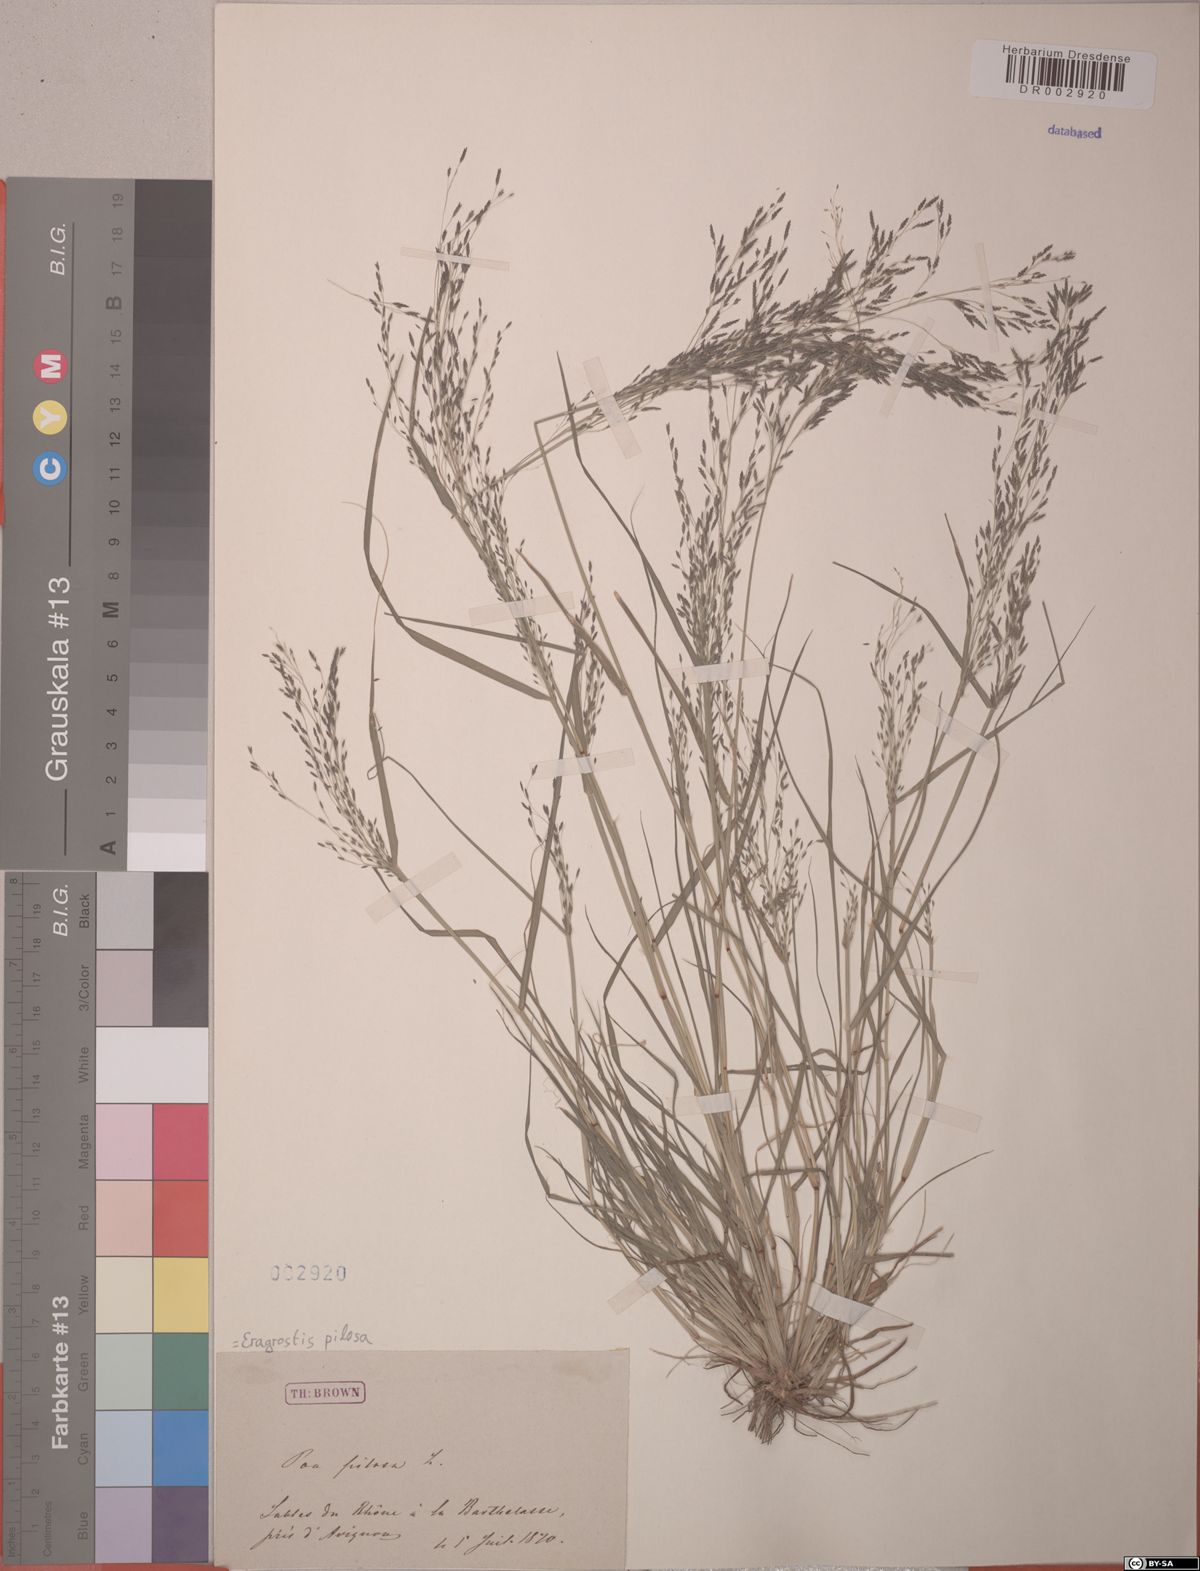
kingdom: Plantae
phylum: Tracheophyta
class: Liliopsida
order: Poales
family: Poaceae
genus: Eragrostis
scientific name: Eragrostis pilosa
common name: Indian lovegrass
